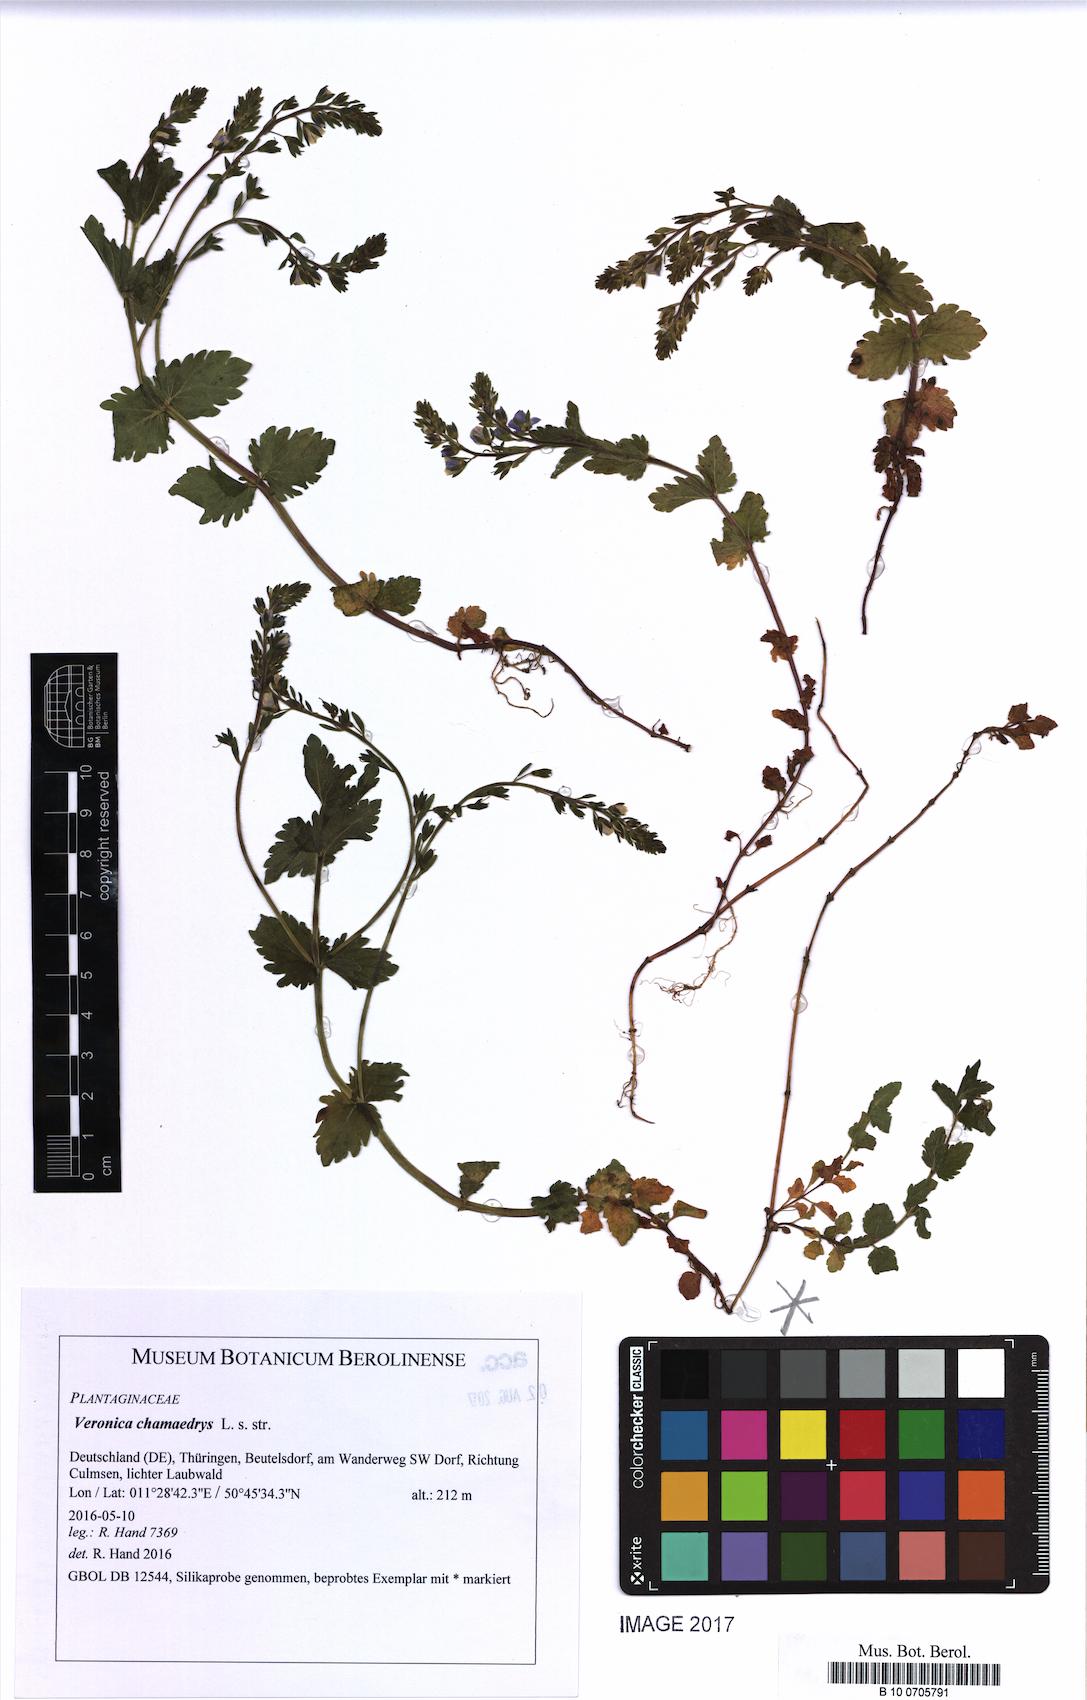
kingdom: Plantae
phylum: Tracheophyta
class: Magnoliopsida
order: Lamiales
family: Plantaginaceae
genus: Veronica
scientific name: Veronica chamaedrys
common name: Germander speedwell
